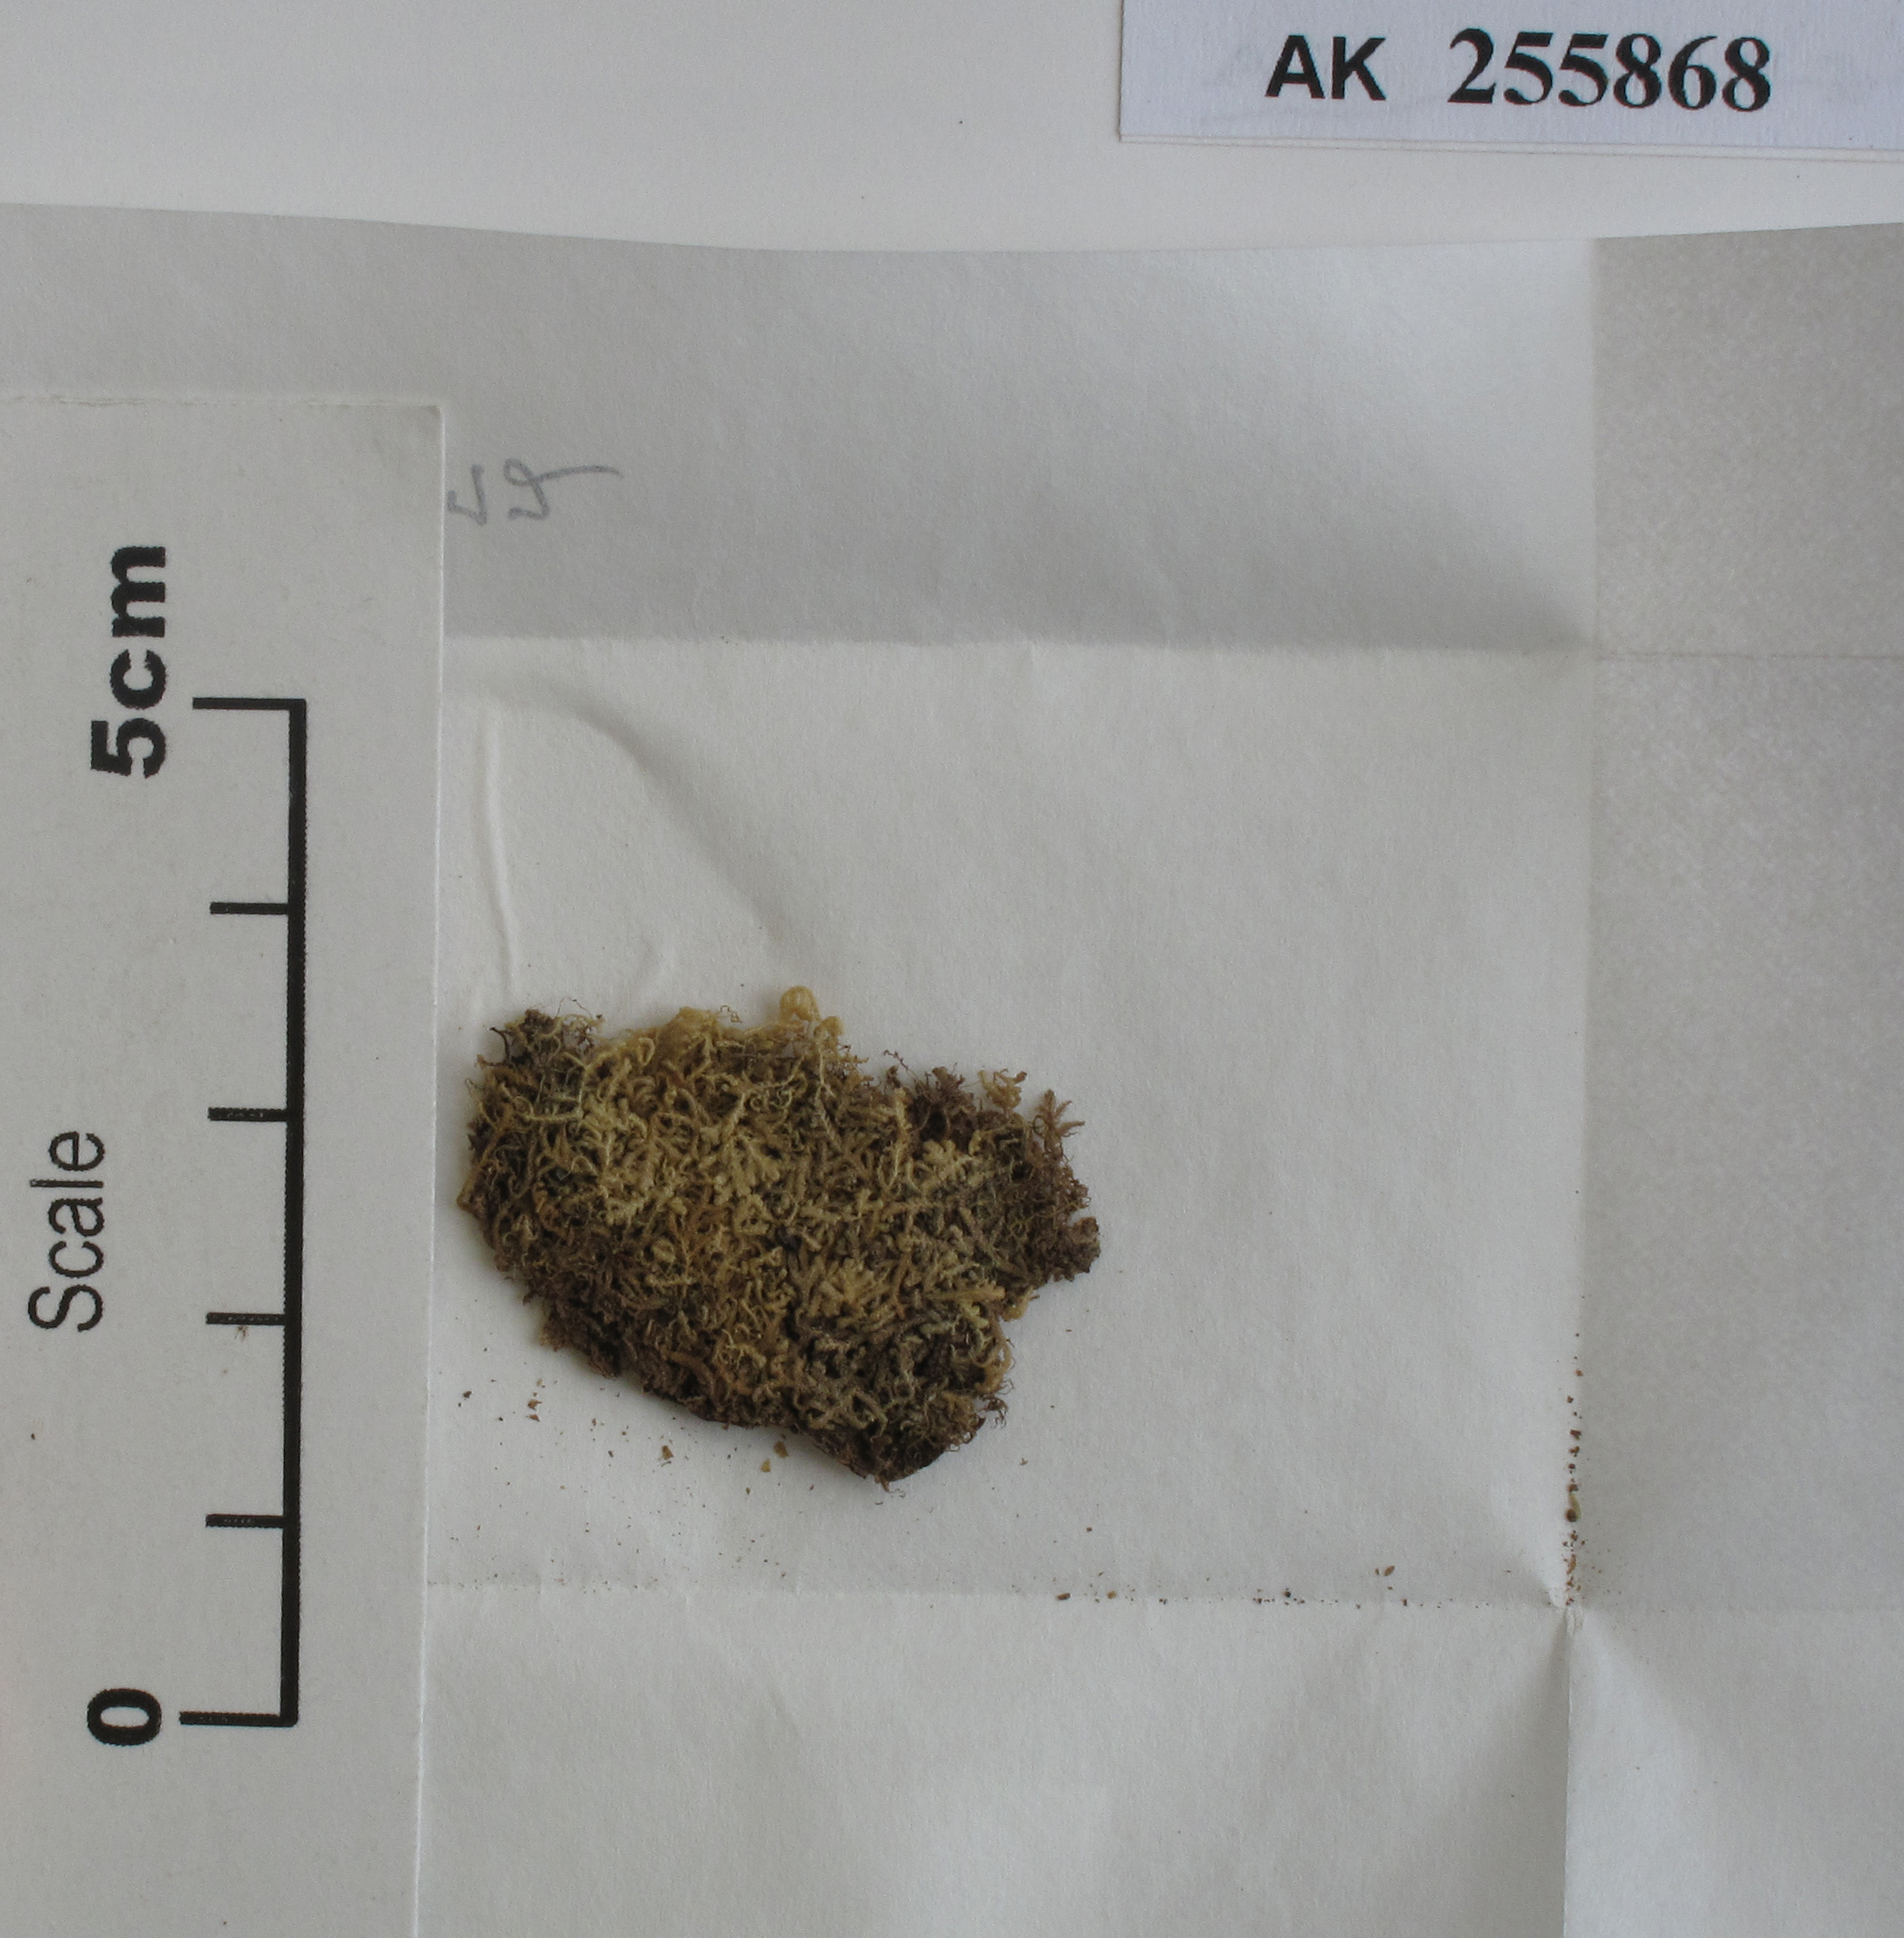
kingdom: Plantae
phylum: Marchantiophyta
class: Jungermanniopsida
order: Jungermanniales
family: Lepidoziaceae
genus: Neolepidozia
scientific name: Neolepidozia patentissima
